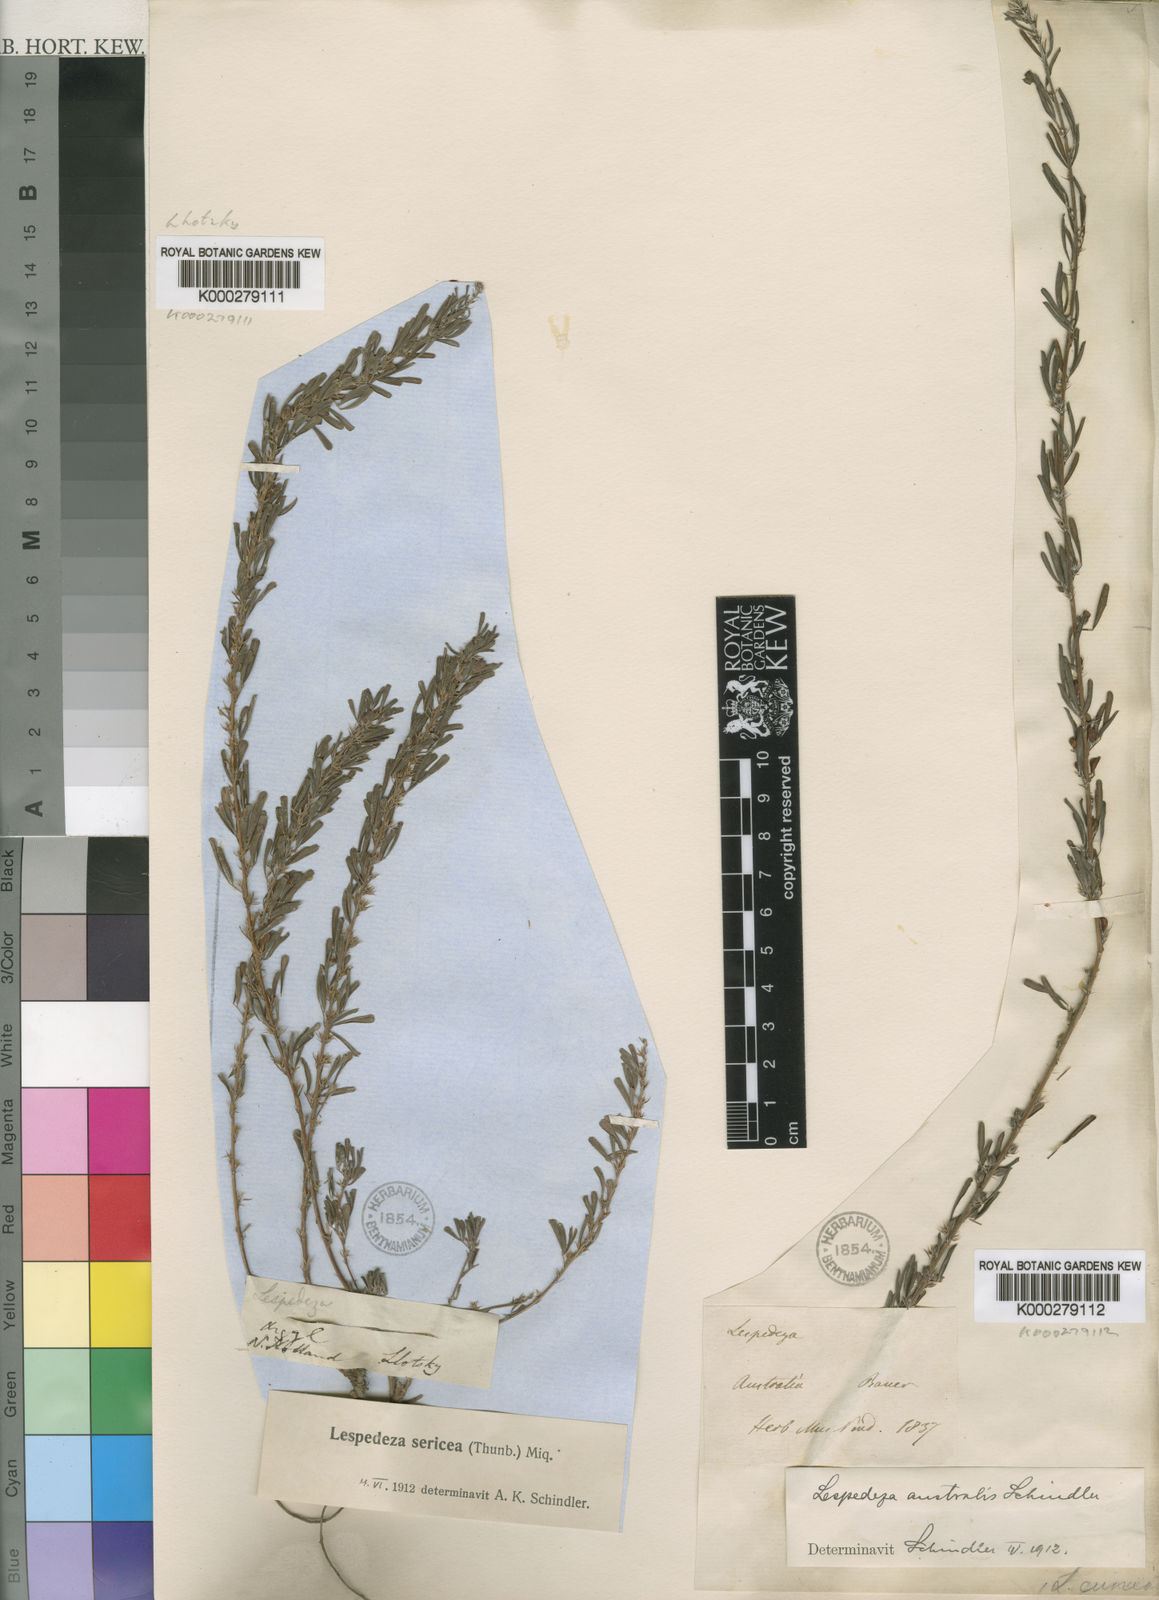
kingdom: Plantae
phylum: Tracheophyta
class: Magnoliopsida
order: Fabales
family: Fabaceae
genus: Lespedeza
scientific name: Lespedeza
